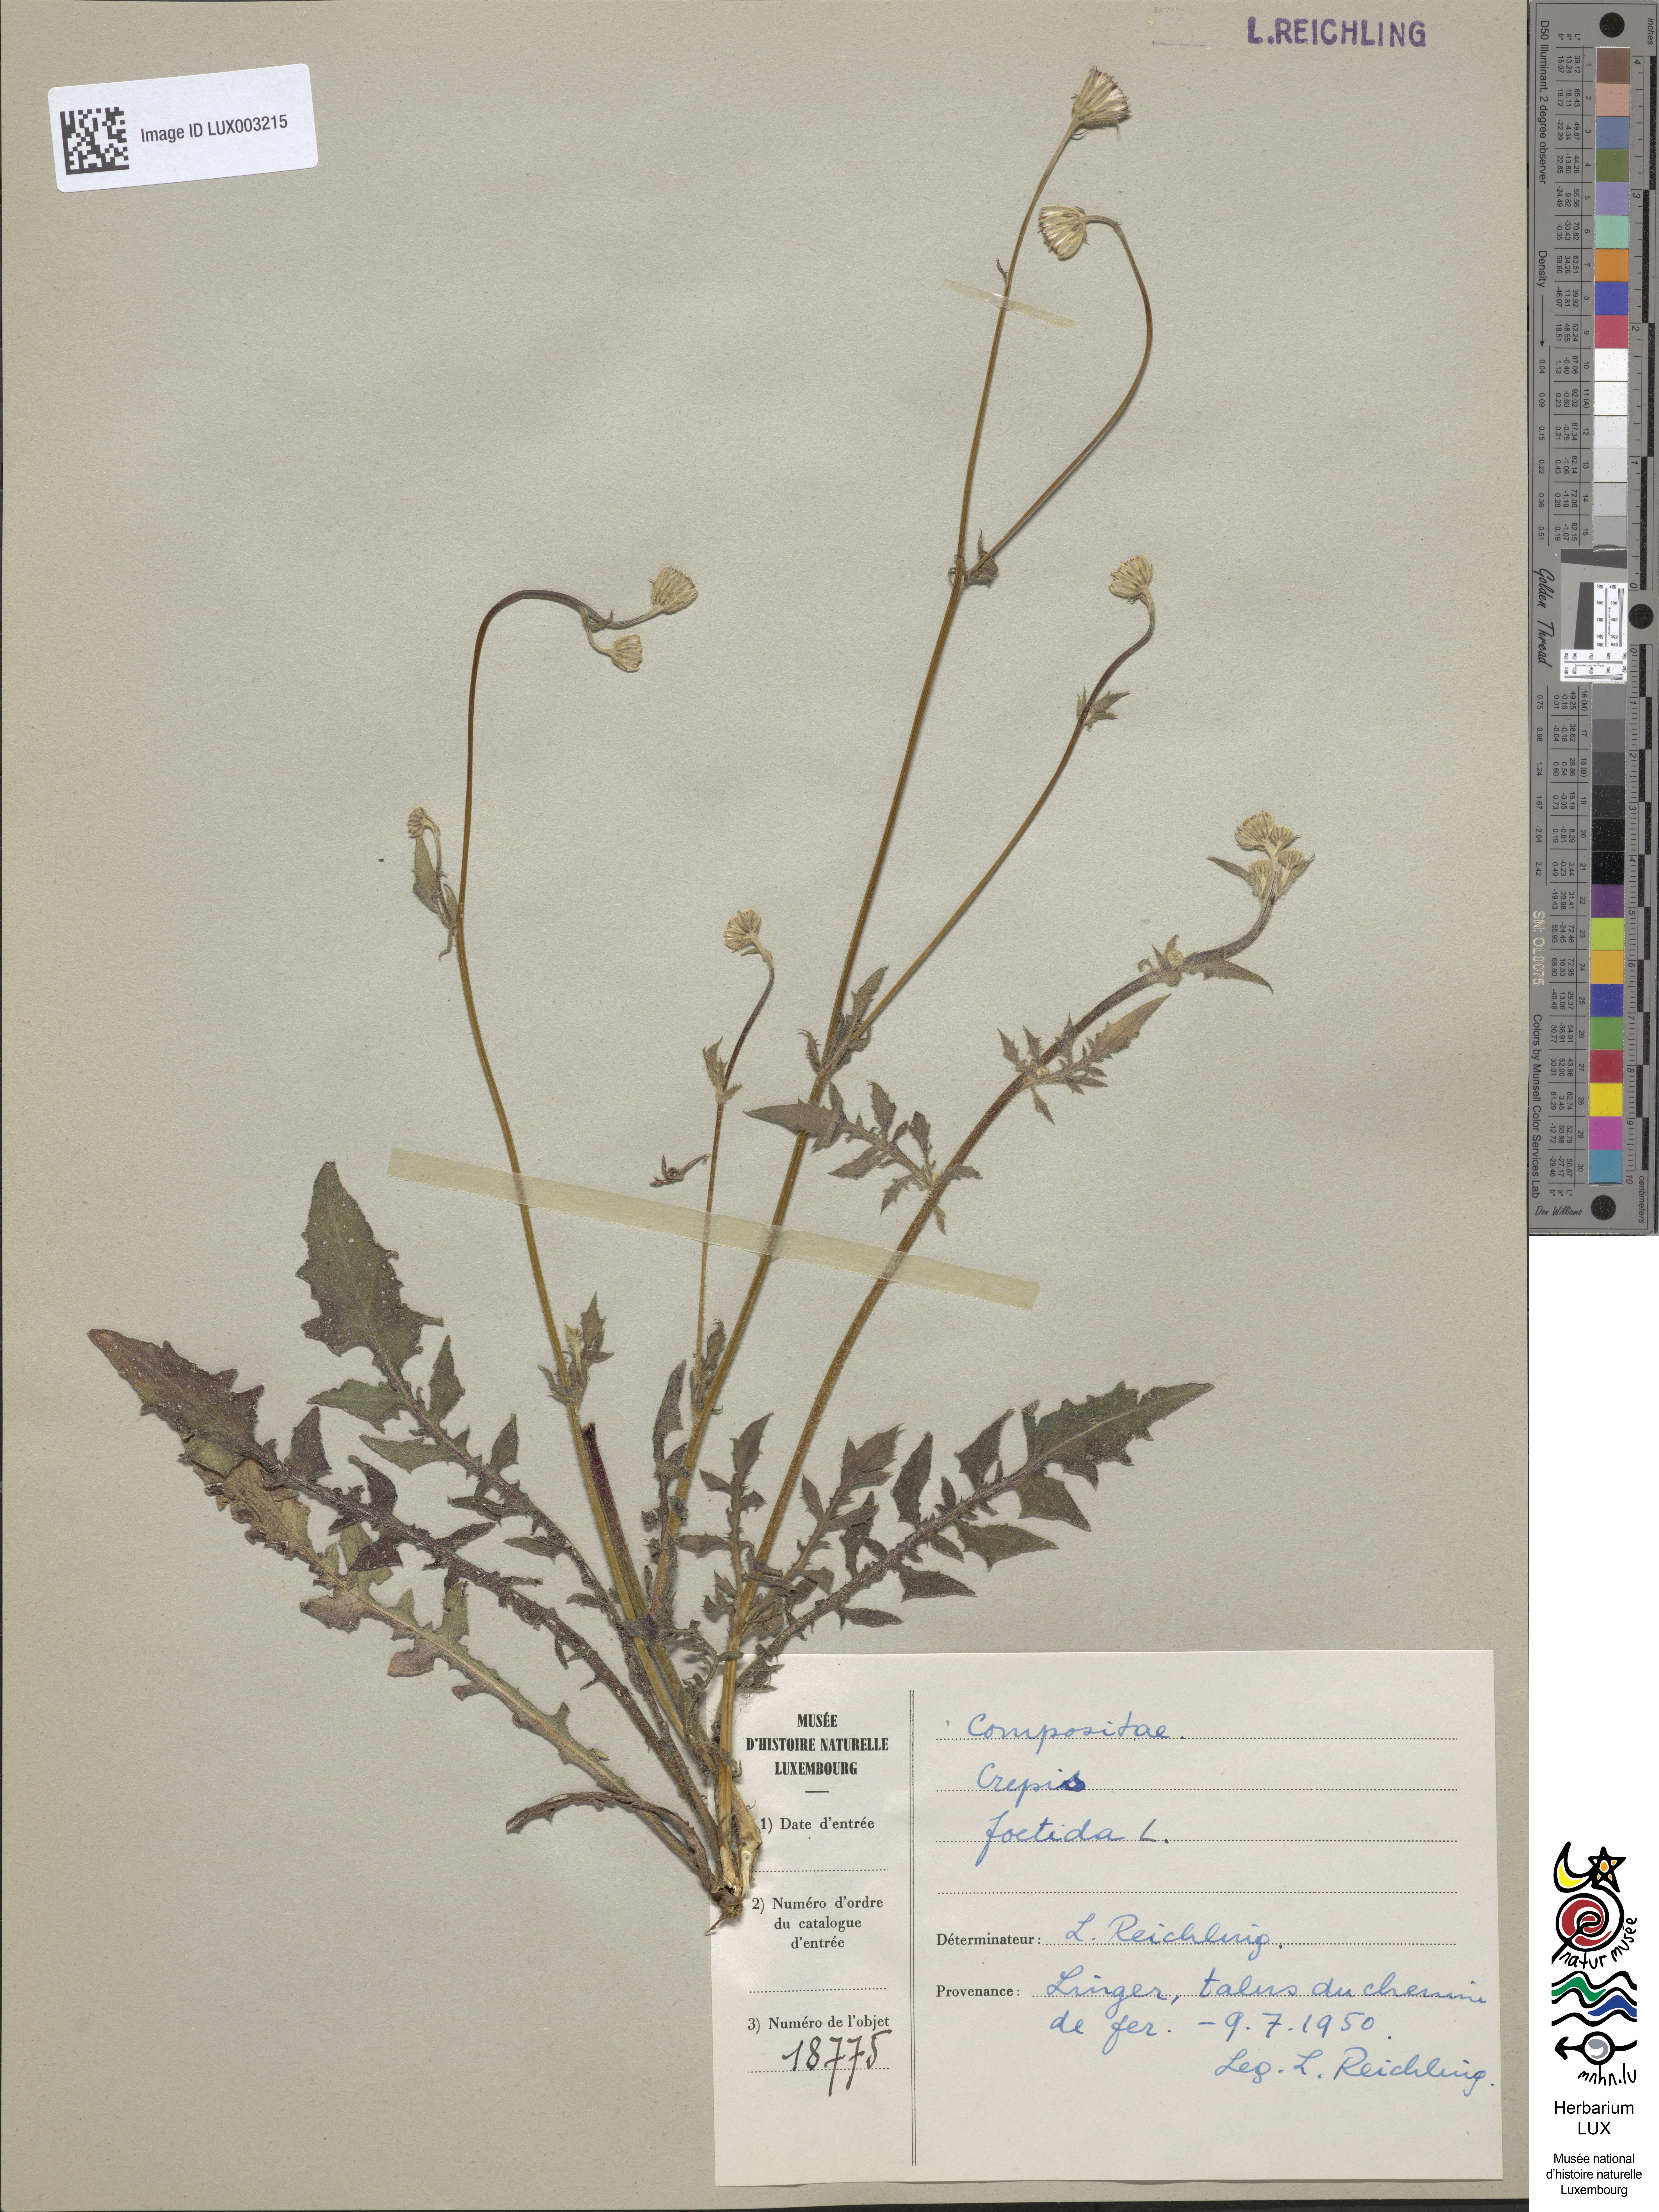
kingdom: Plantae
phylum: Tracheophyta
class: Magnoliopsida
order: Asterales
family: Asteraceae
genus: Crepis
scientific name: Crepis foetida
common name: Stinking hawk's-beard
